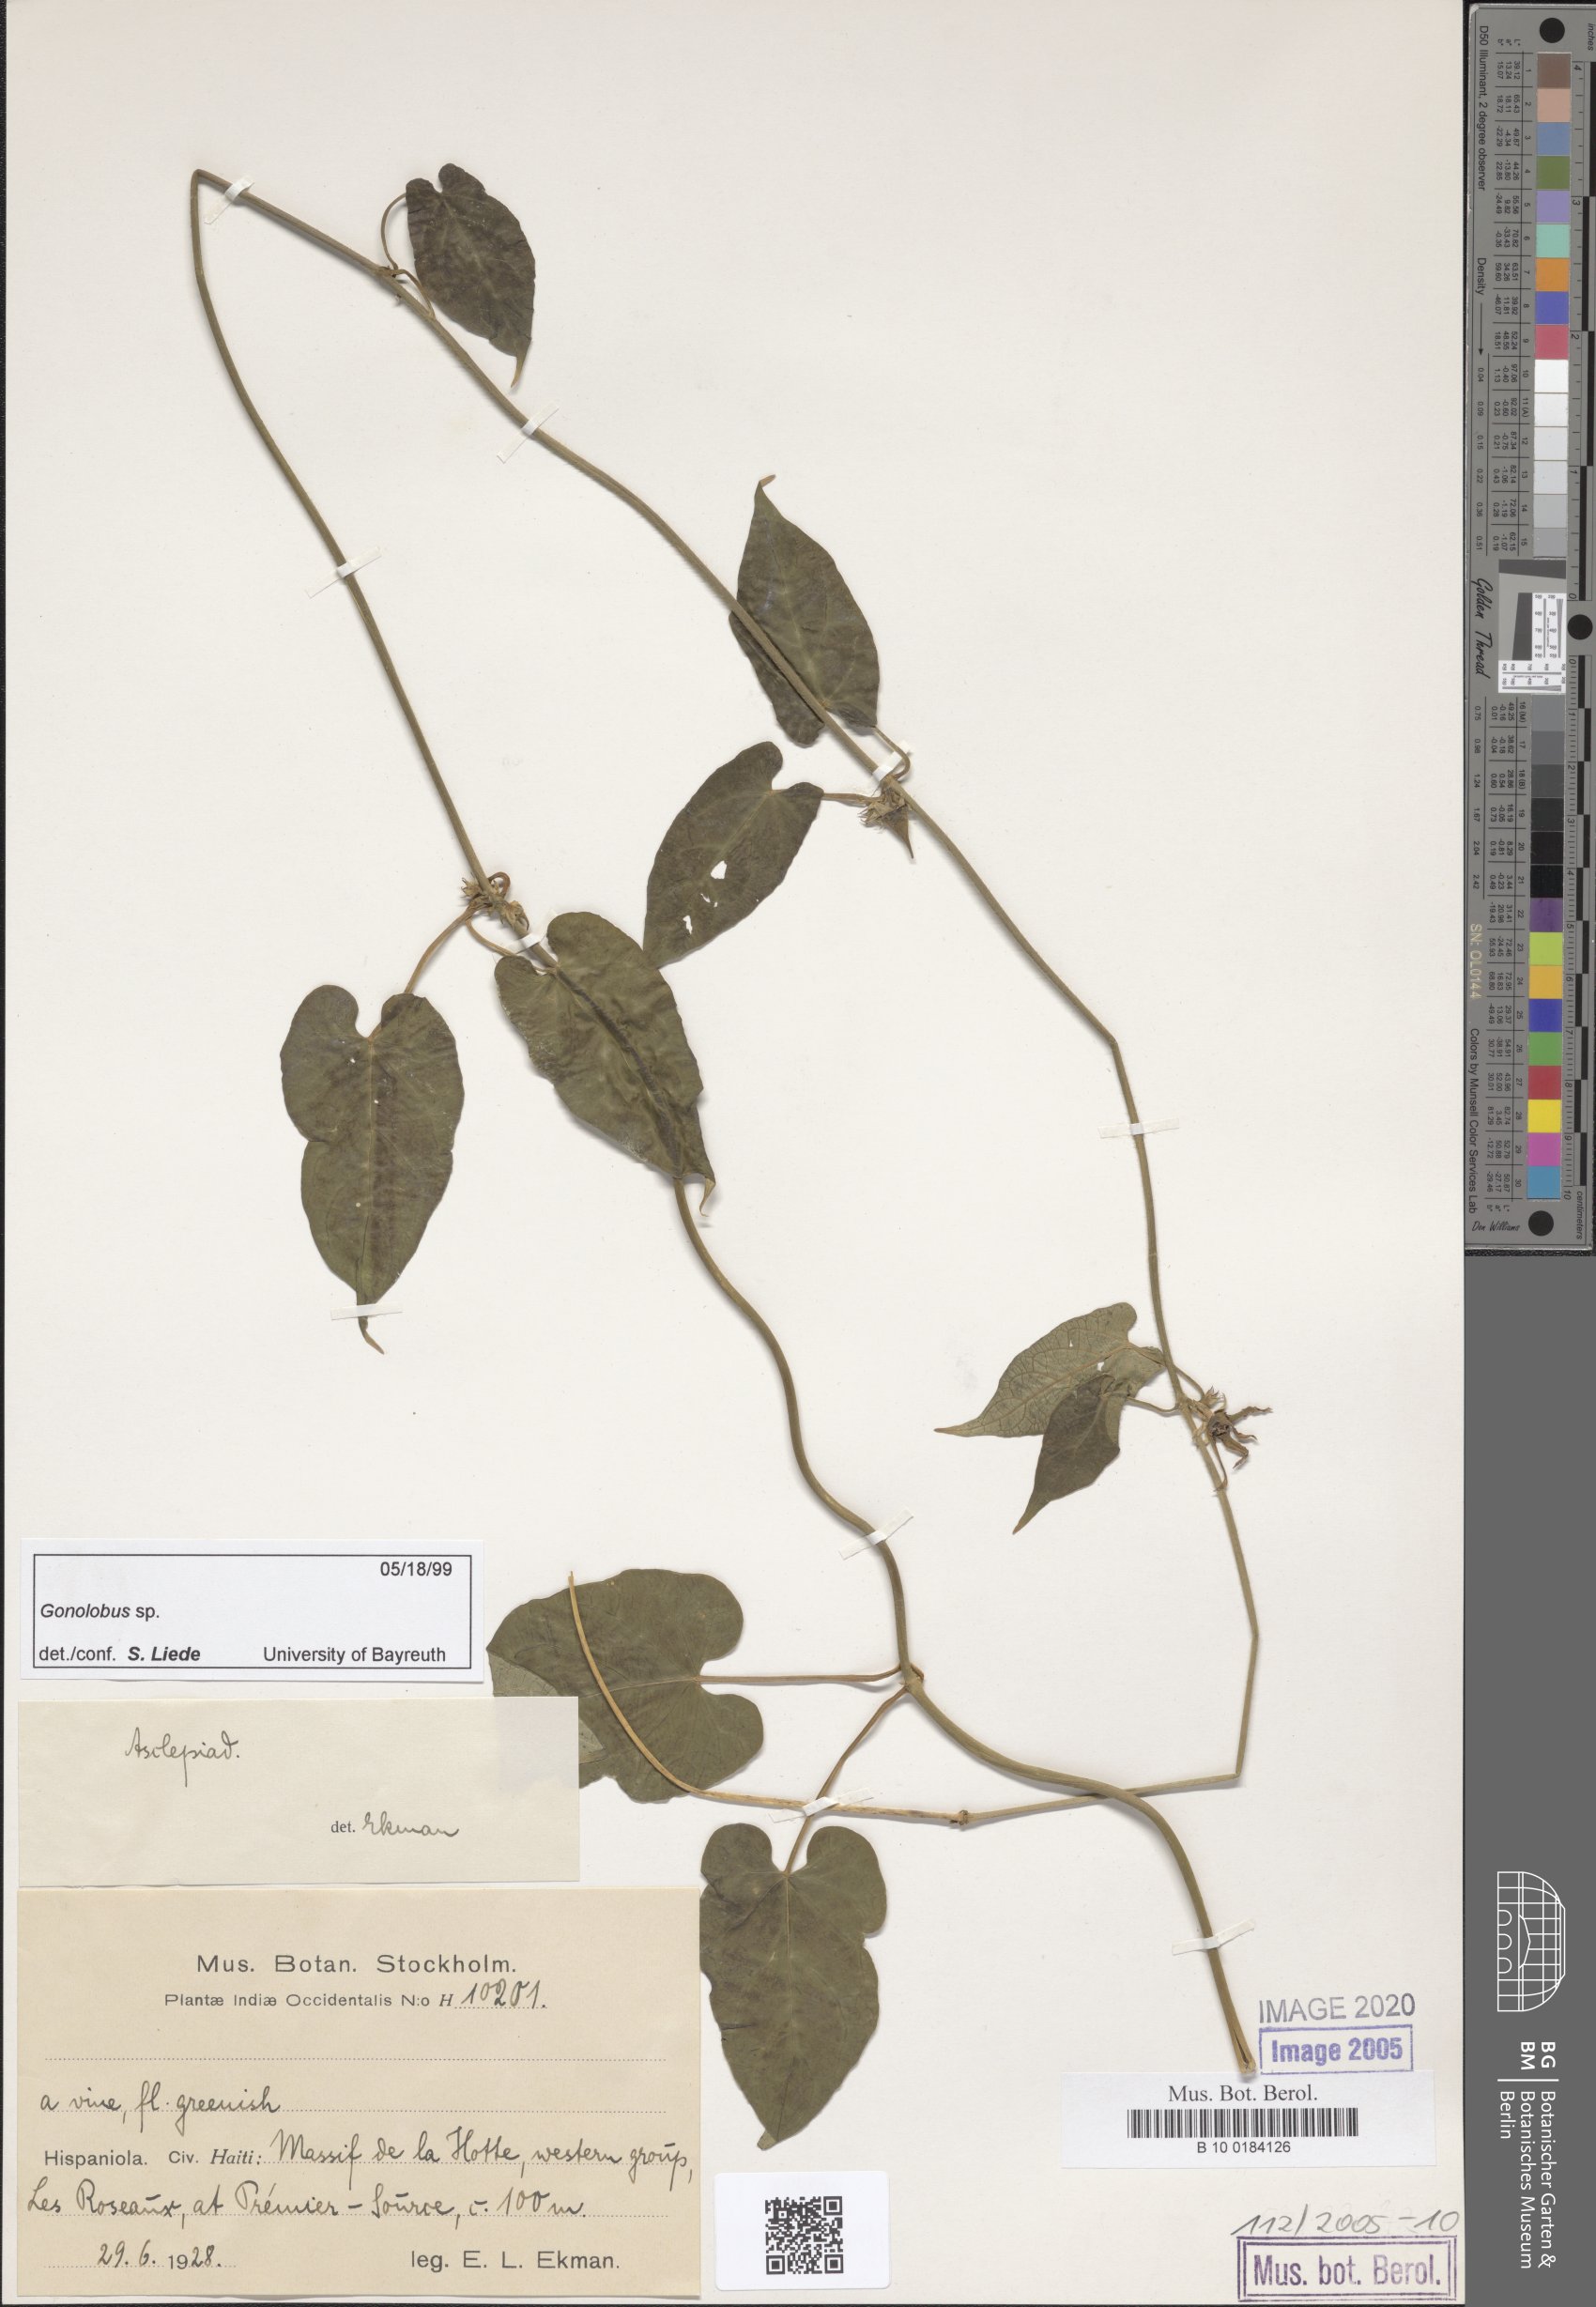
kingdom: Plantae
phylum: Tracheophyta
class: Magnoliopsida
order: Gentianales
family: Apocynaceae
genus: Gonolobus
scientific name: Gonolobus
